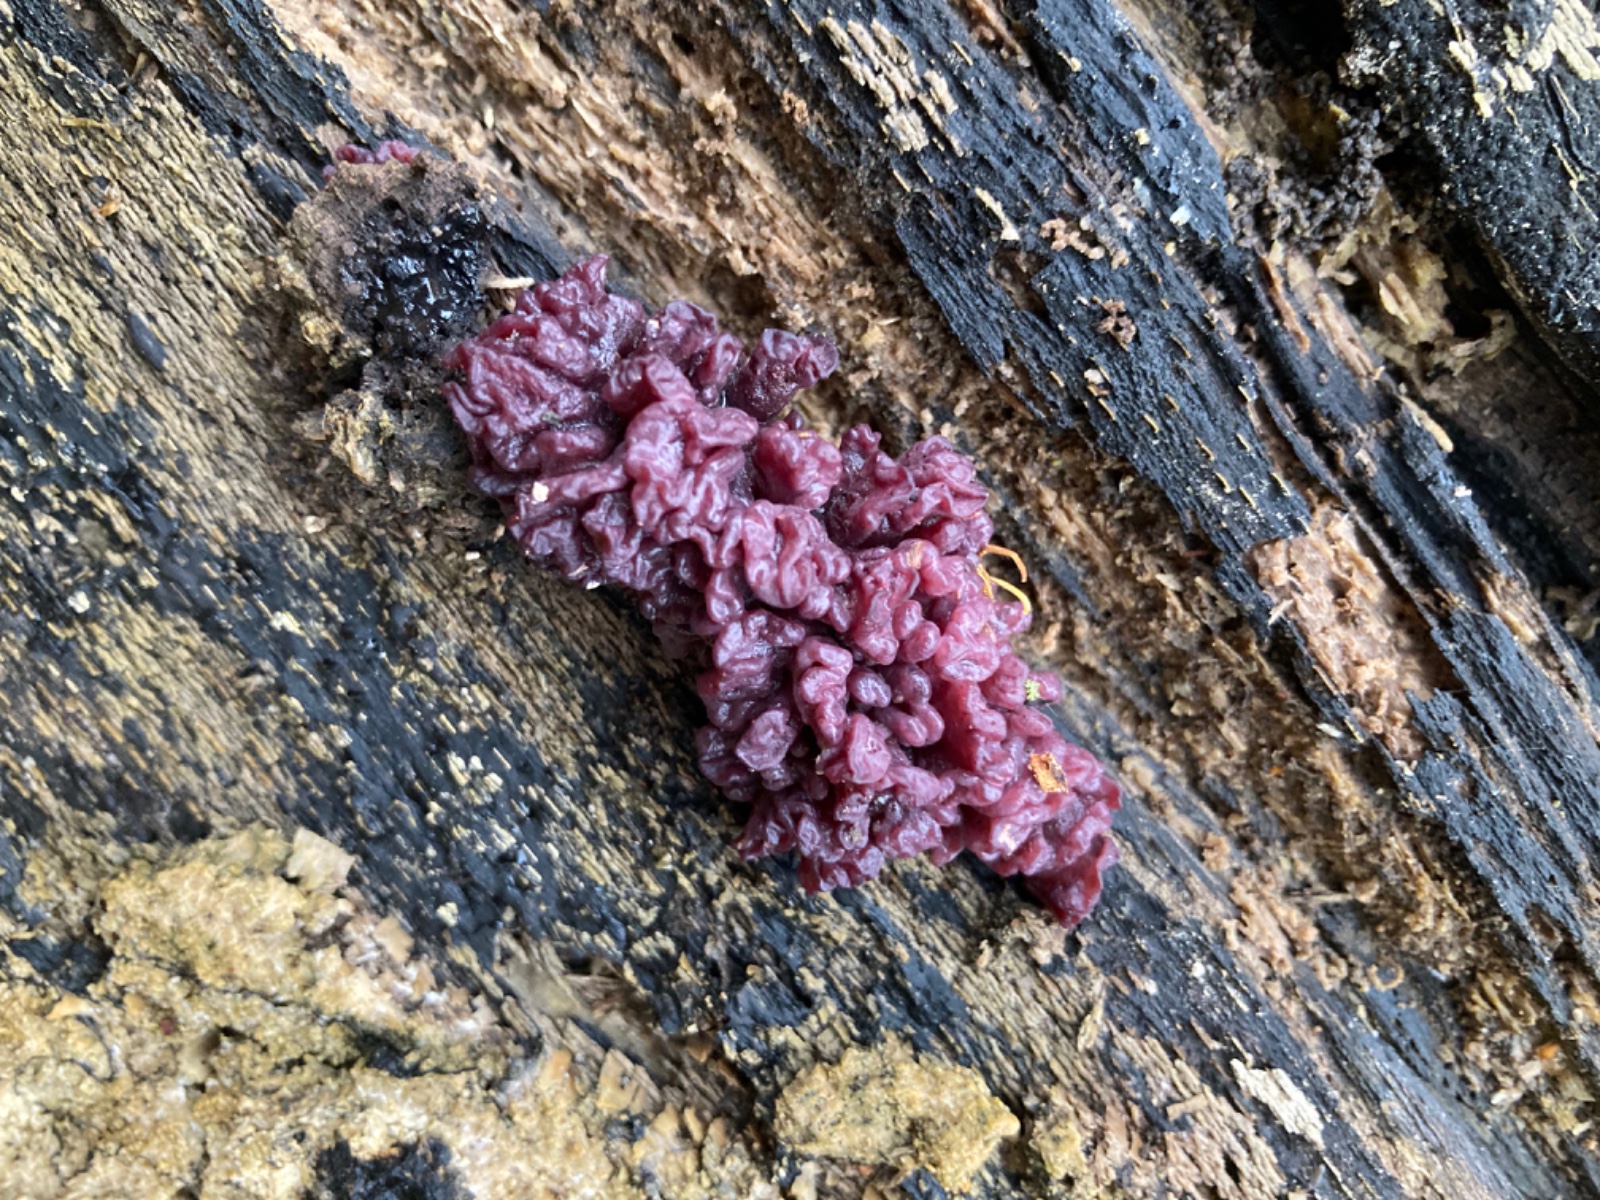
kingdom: Fungi
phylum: Ascomycota
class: Leotiomycetes
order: Helotiales
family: Gelatinodiscaceae
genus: Ascocoryne
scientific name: Ascocoryne sarcoides
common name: rødlilla sejskive
